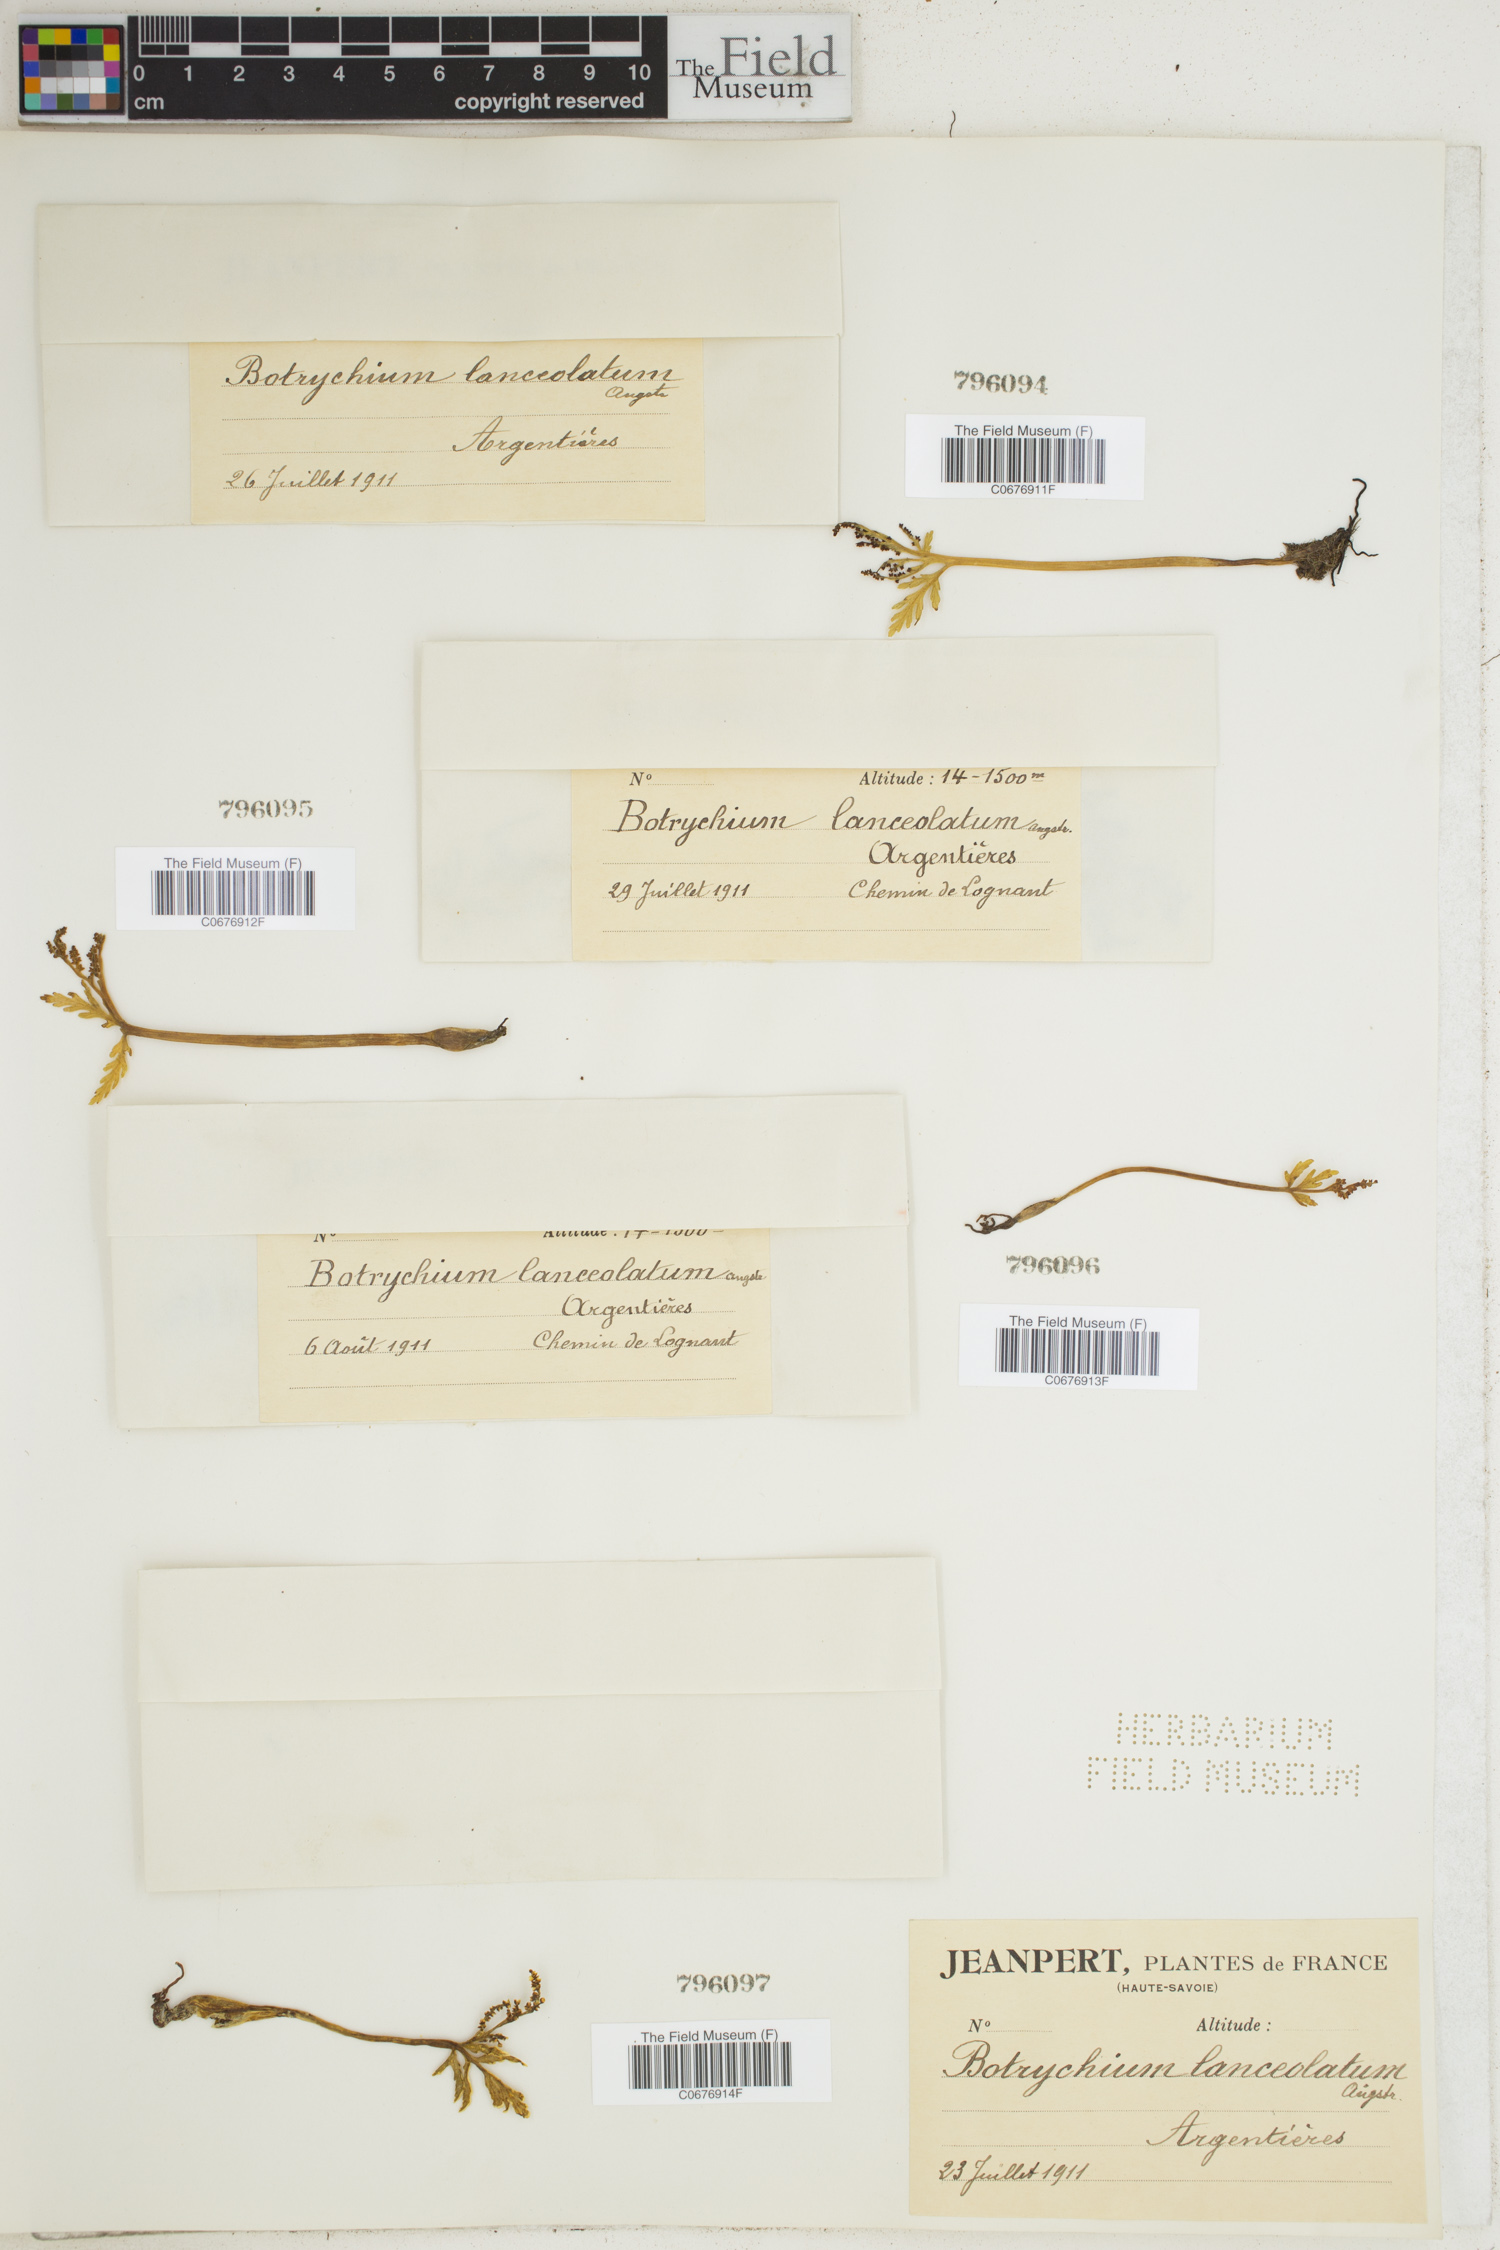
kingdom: Plantae
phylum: Tracheophyta
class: Polypodiopsida
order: Ophioglossales
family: Ophioglossaceae
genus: Botrychium
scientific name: Botrychium lanceolatum
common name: Lance-leaved moonwort
